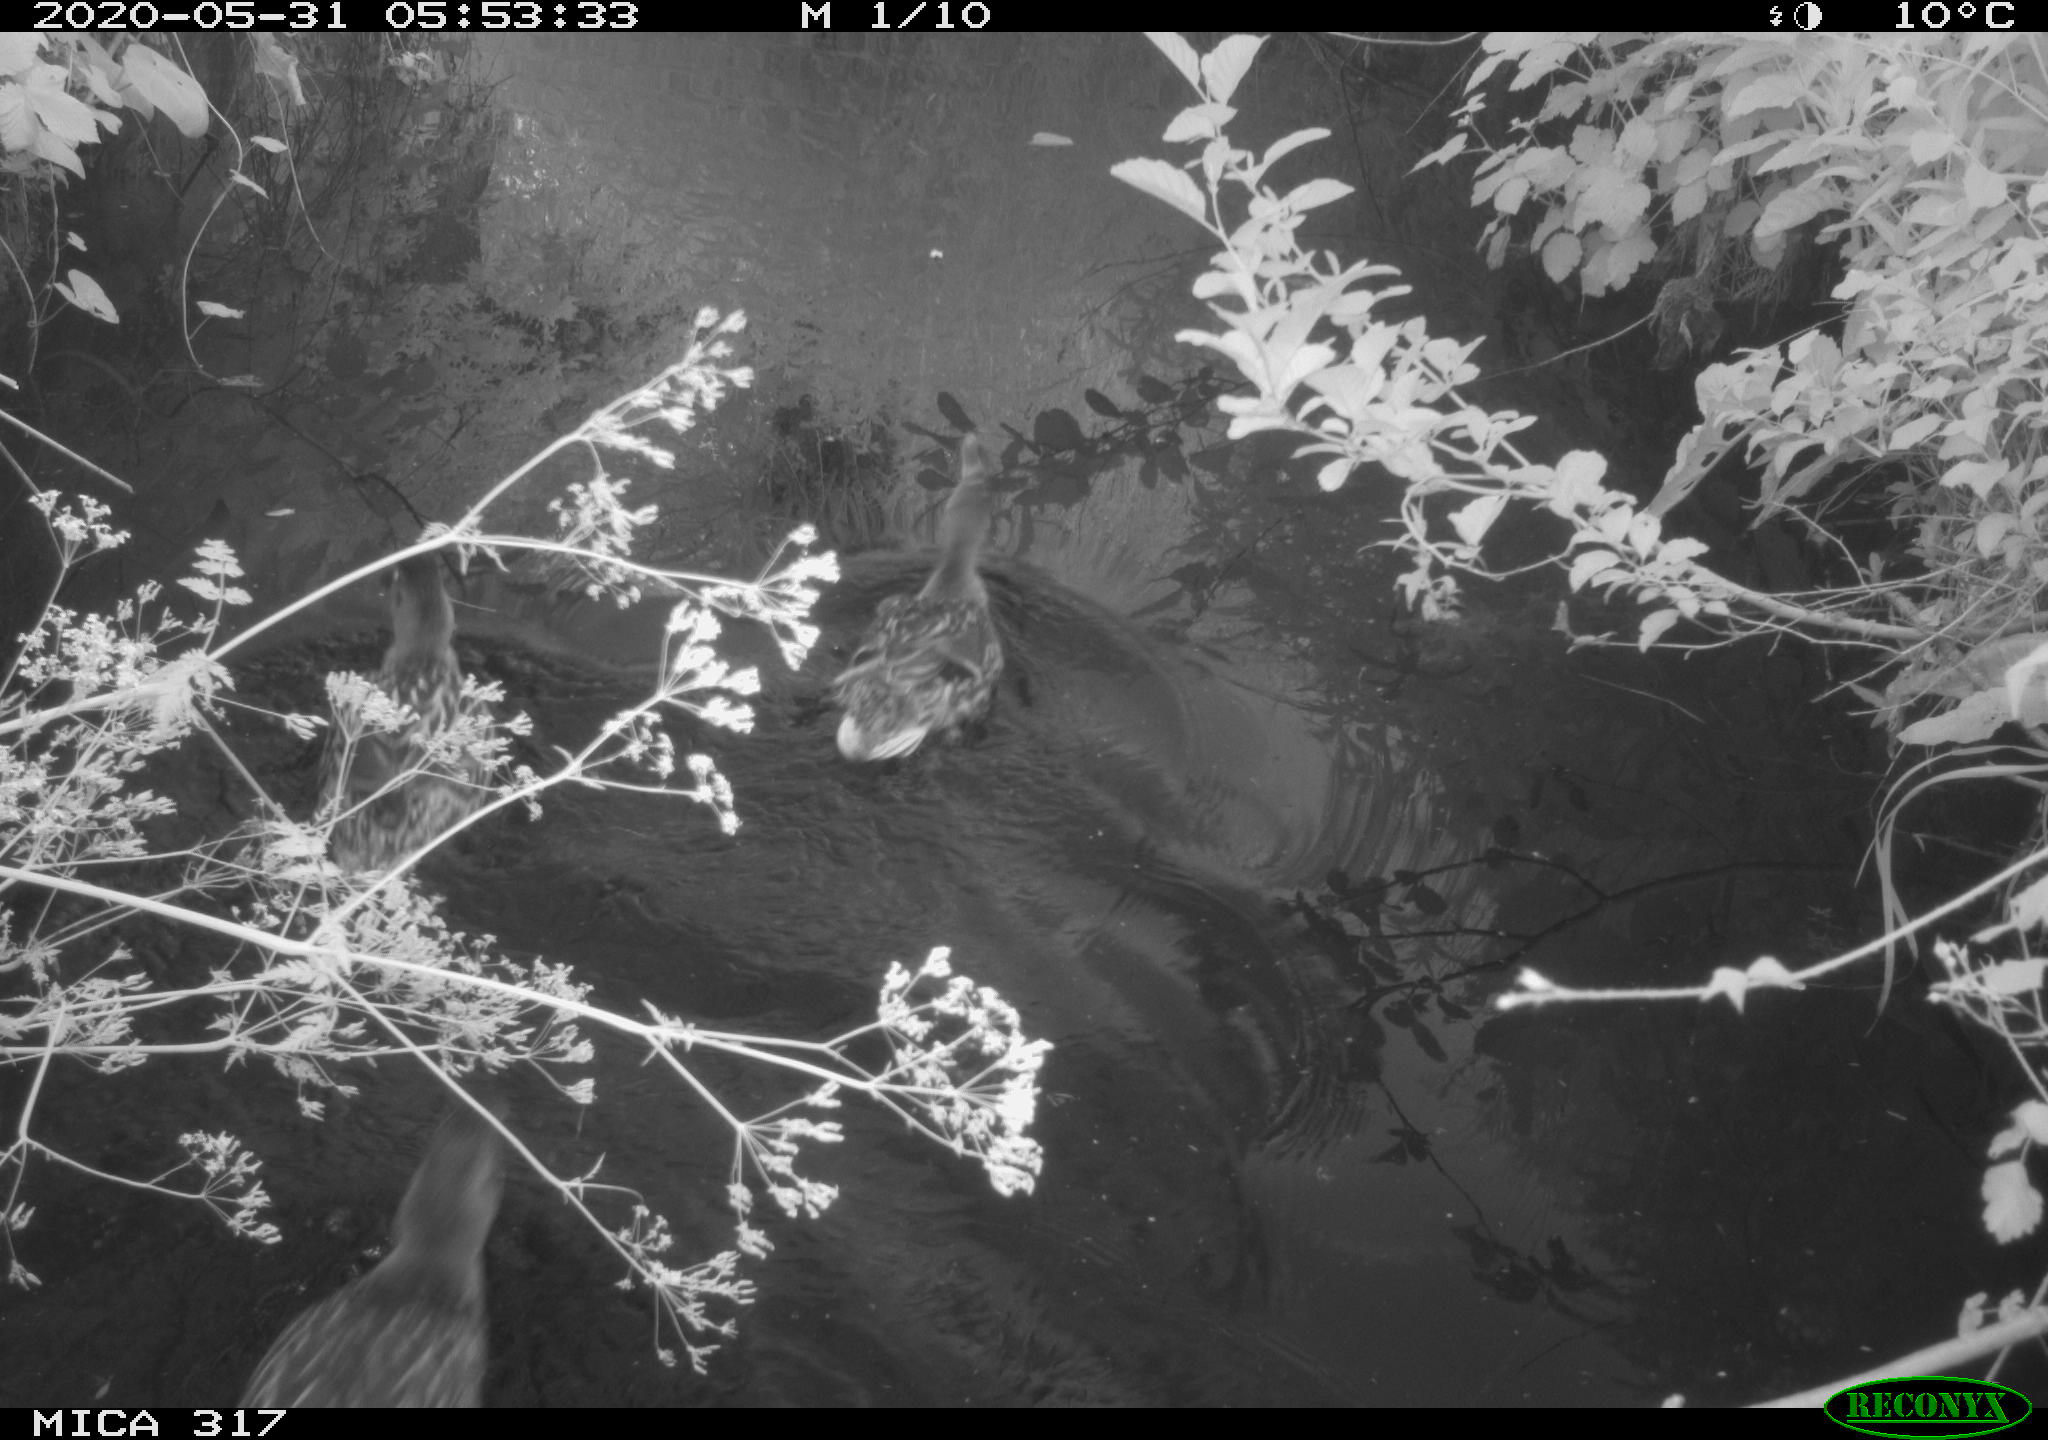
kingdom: Animalia
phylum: Chordata
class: Aves
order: Anseriformes
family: Anatidae
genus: Anas
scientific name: Anas platyrhynchos
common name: Mallard
